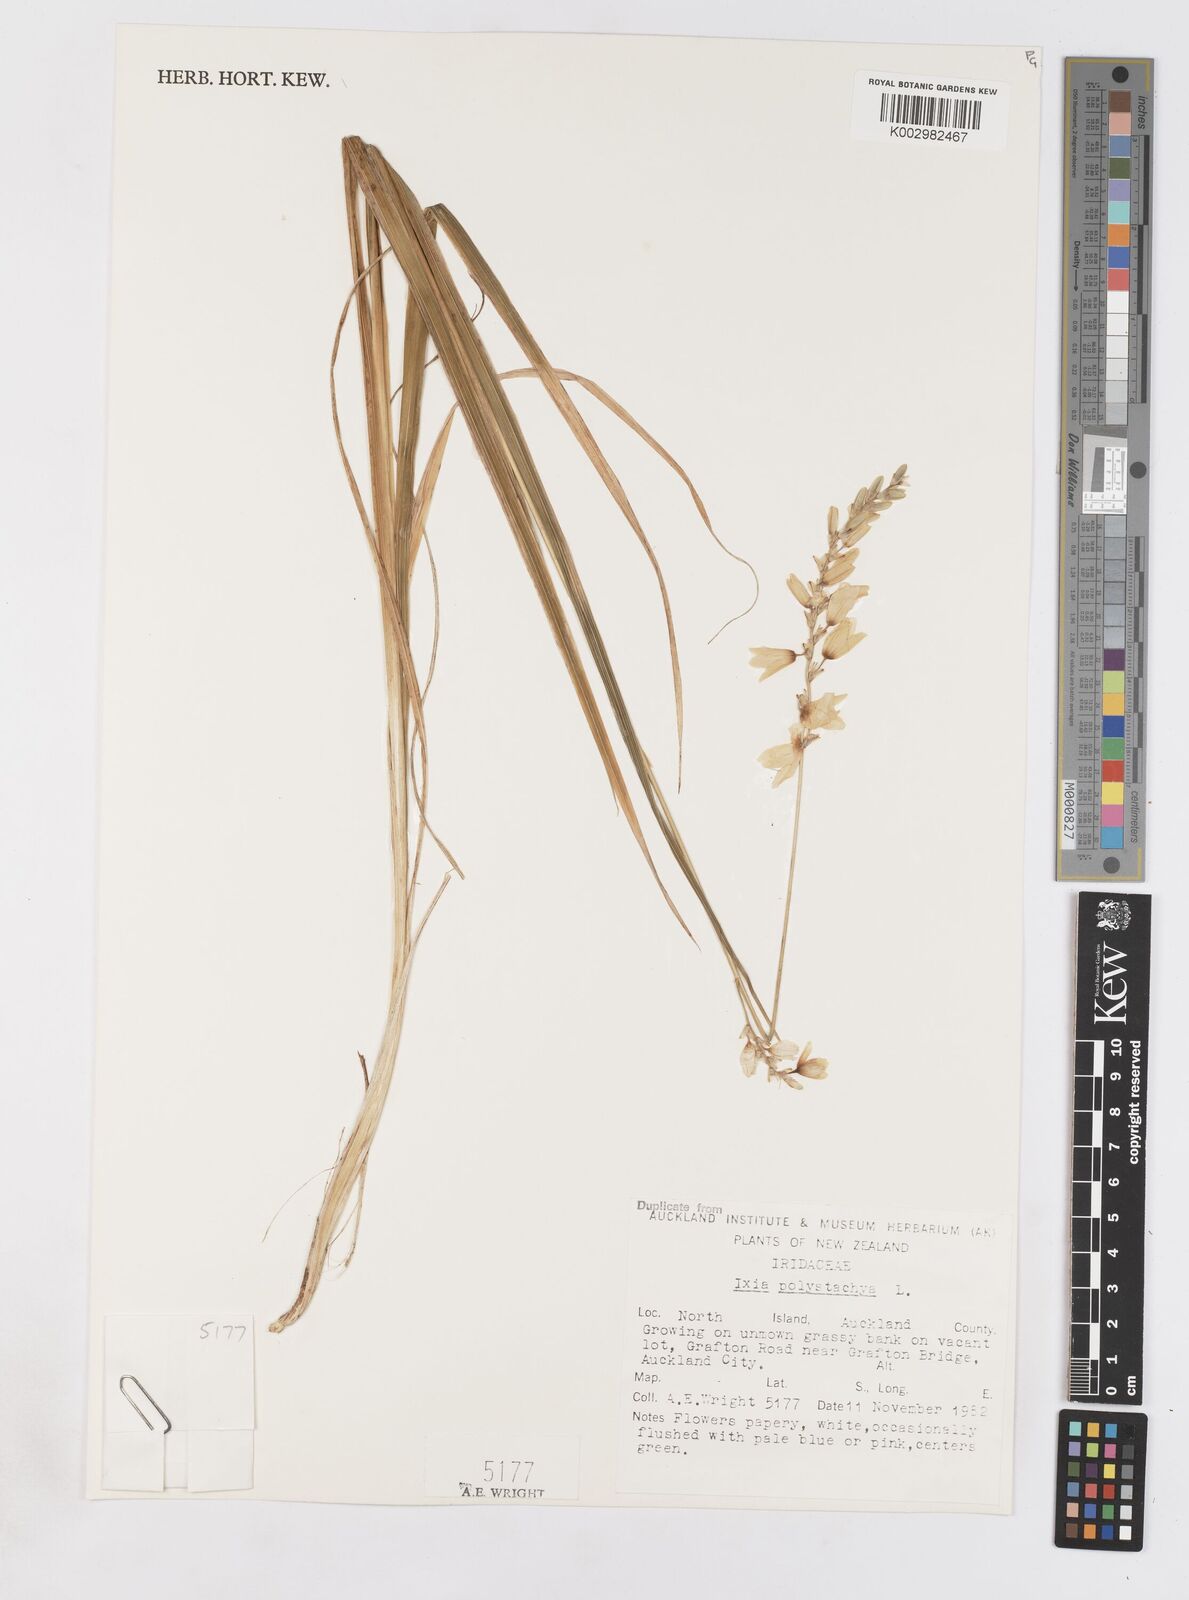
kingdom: Plantae
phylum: Tracheophyta
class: Liliopsida
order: Asparagales
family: Iridaceae
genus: Ixia
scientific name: Ixia polystachya
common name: White-and-yellow-flower cornlily
